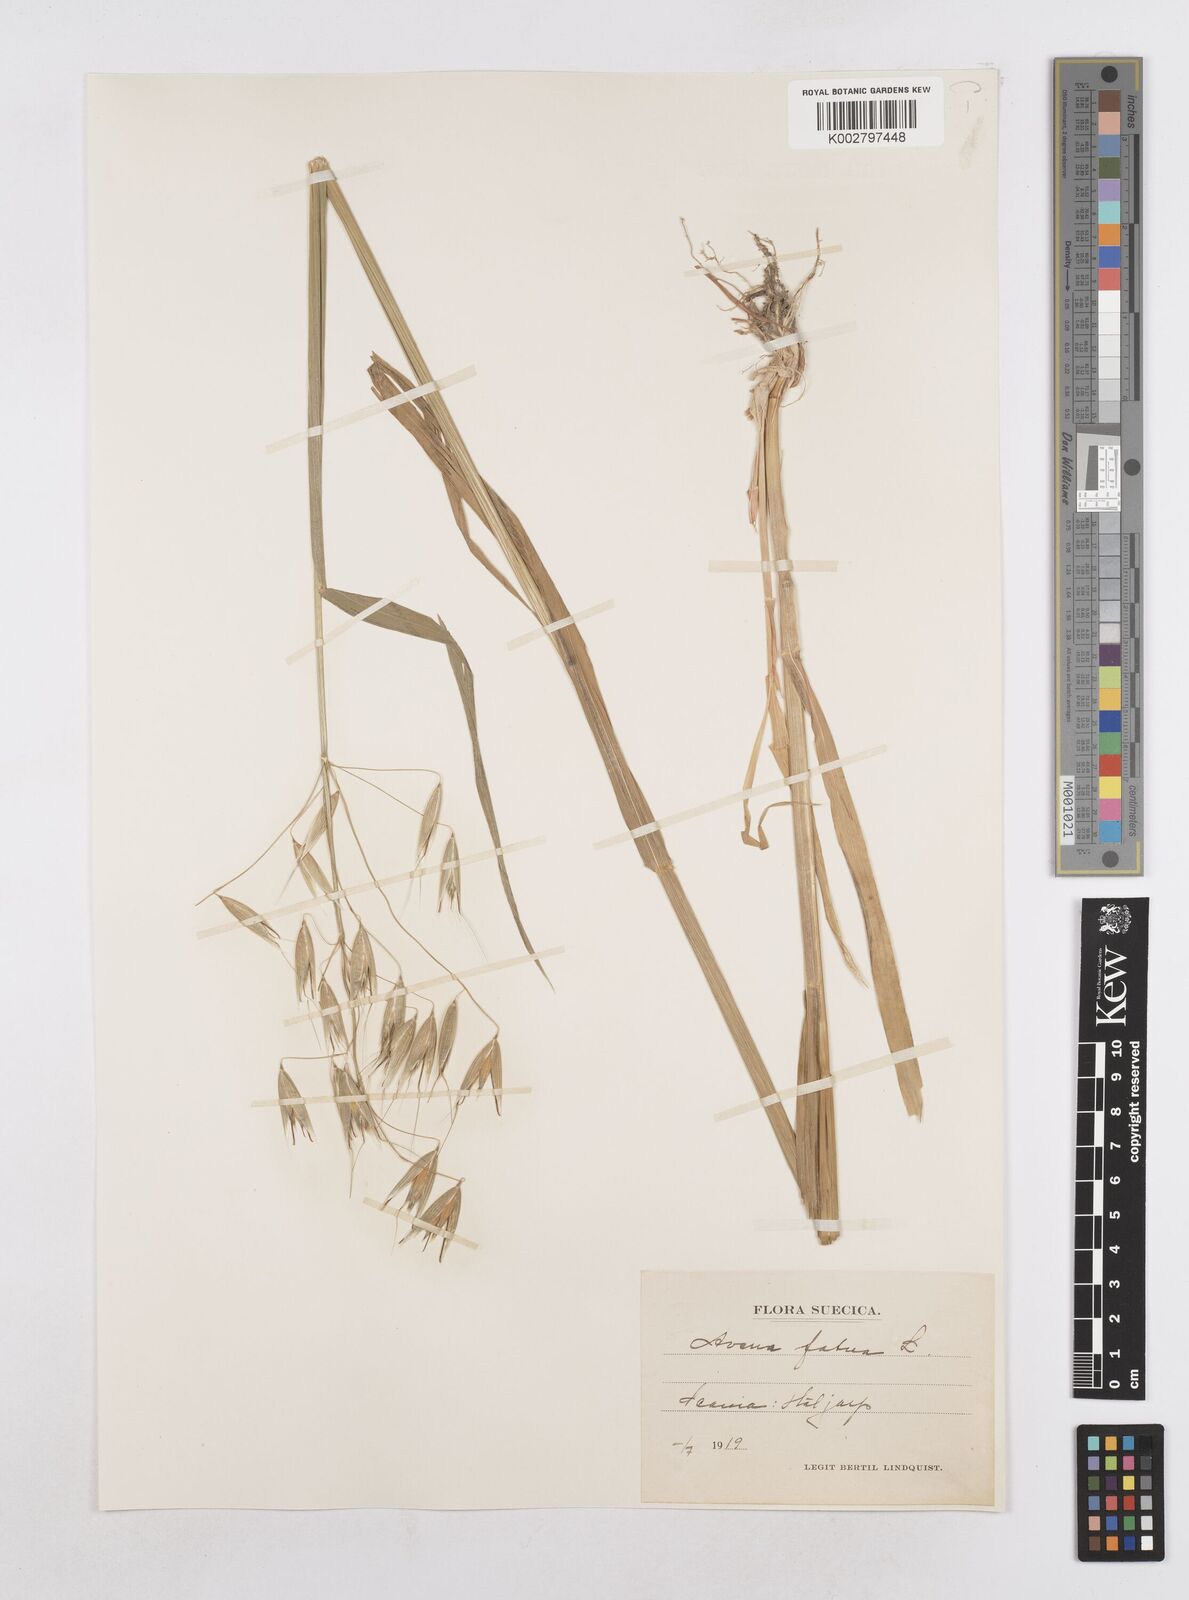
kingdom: Plantae
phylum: Tracheophyta
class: Liliopsida
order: Poales
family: Poaceae
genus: Avena
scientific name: Avena fatua
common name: Wild oat
